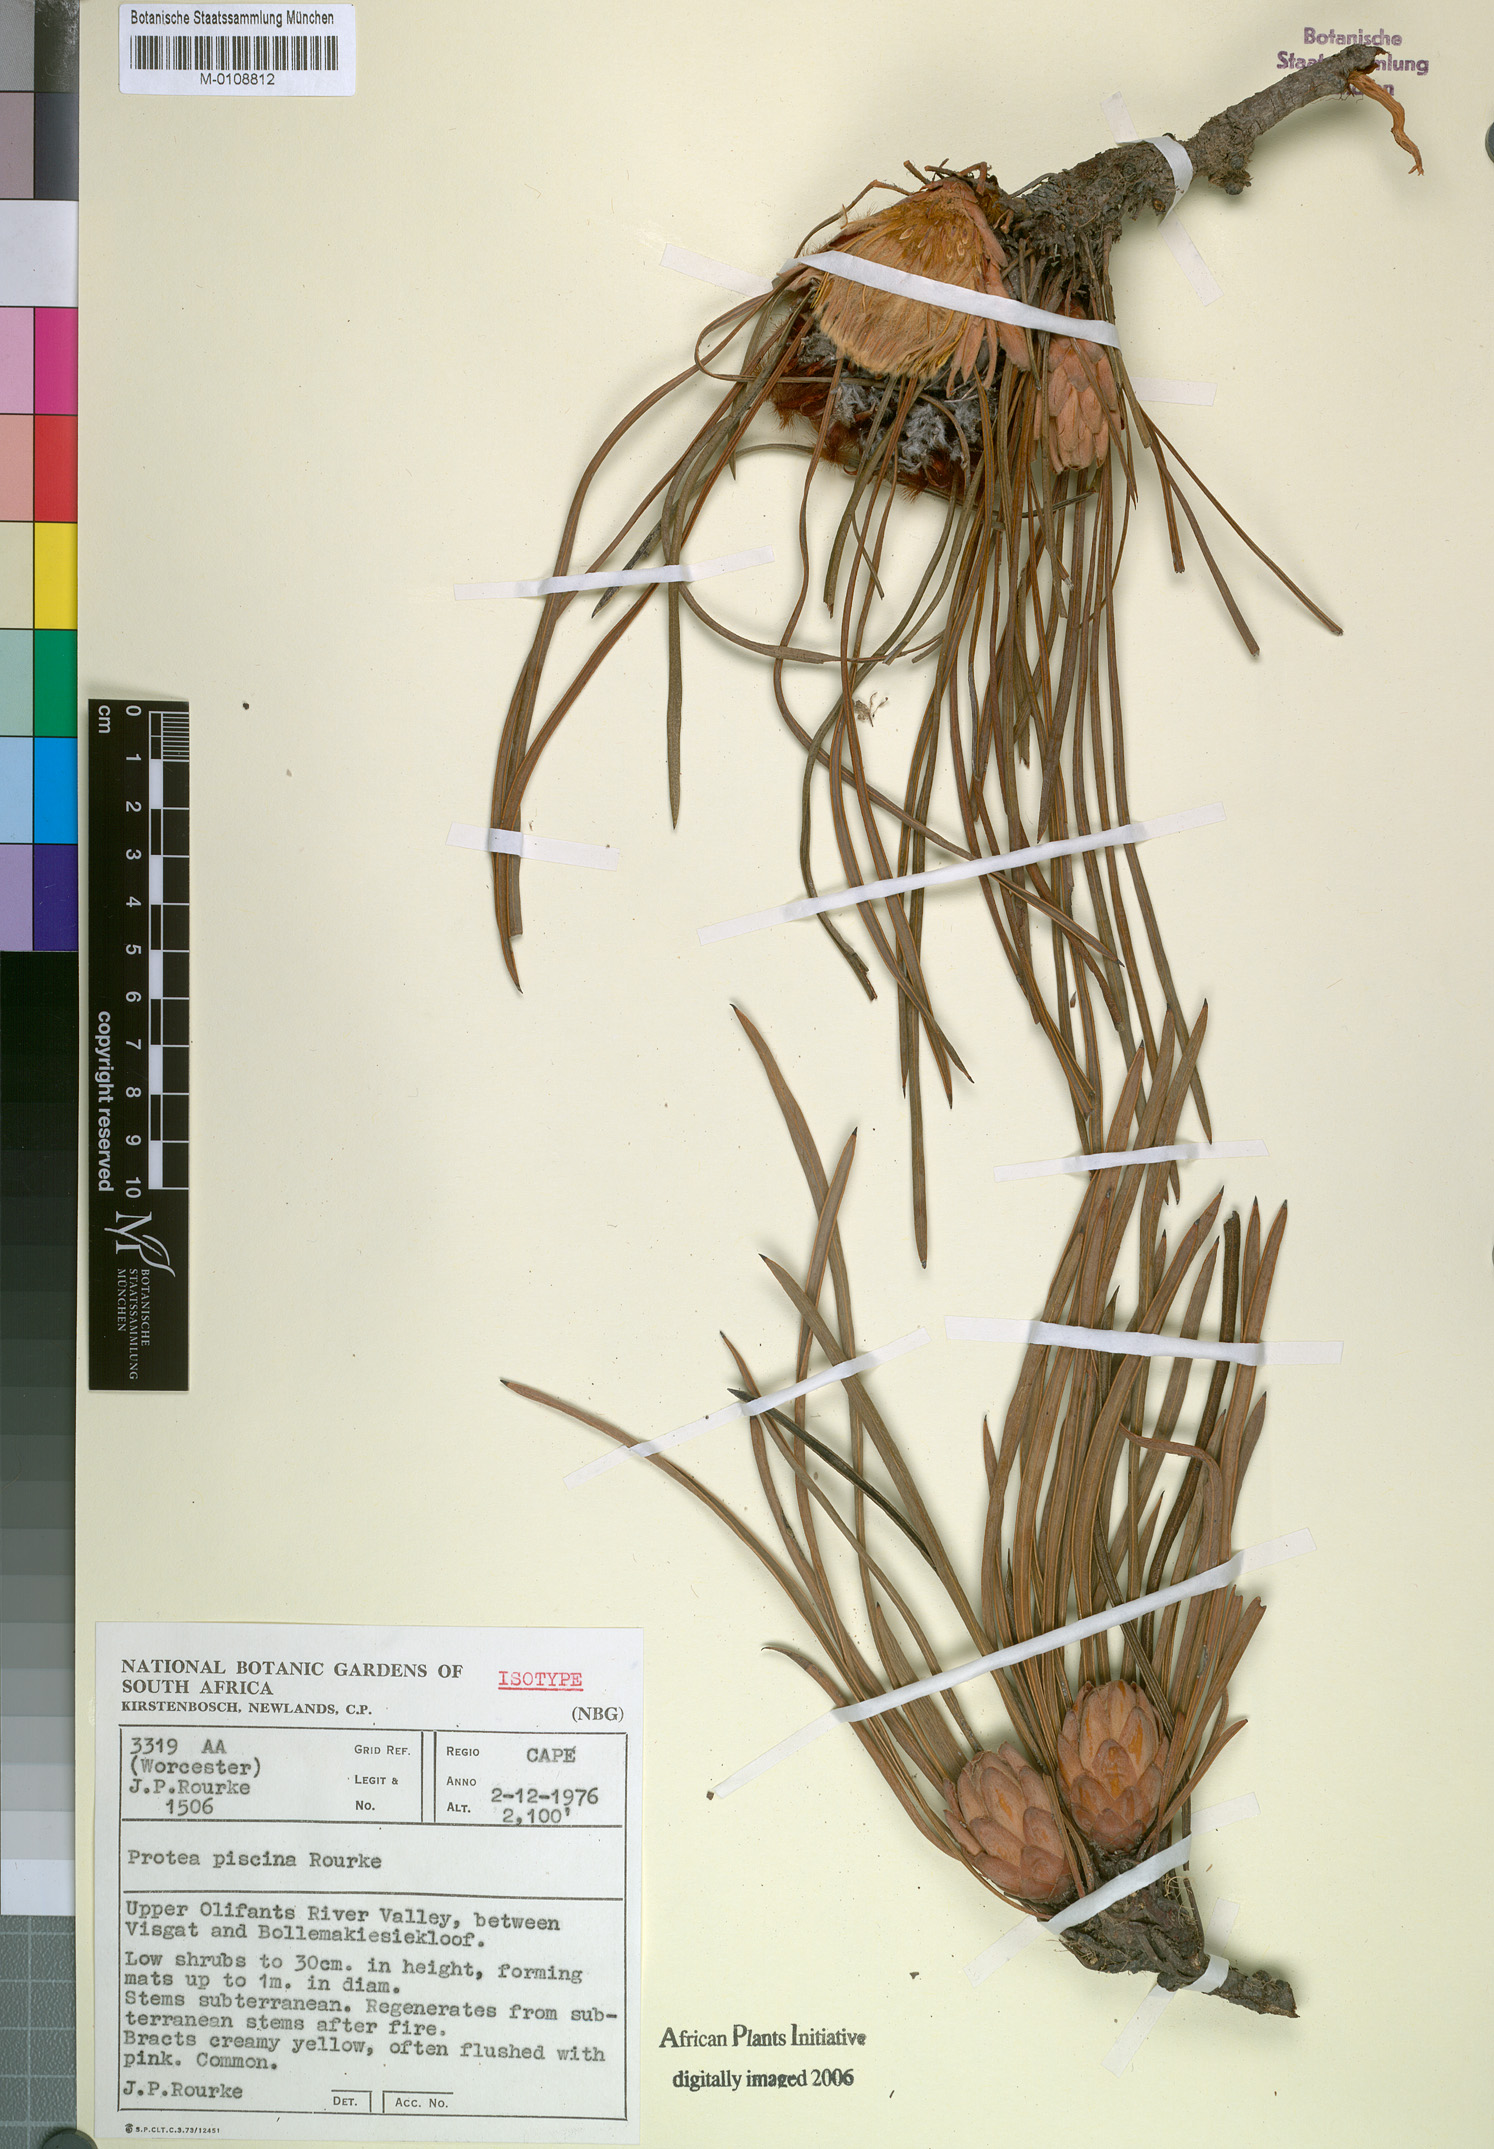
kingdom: Plantae
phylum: Tracheophyta
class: Magnoliopsida
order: Proteales
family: Proteaceae
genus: Protea
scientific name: Protea piscina
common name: Visgat sugarbush
